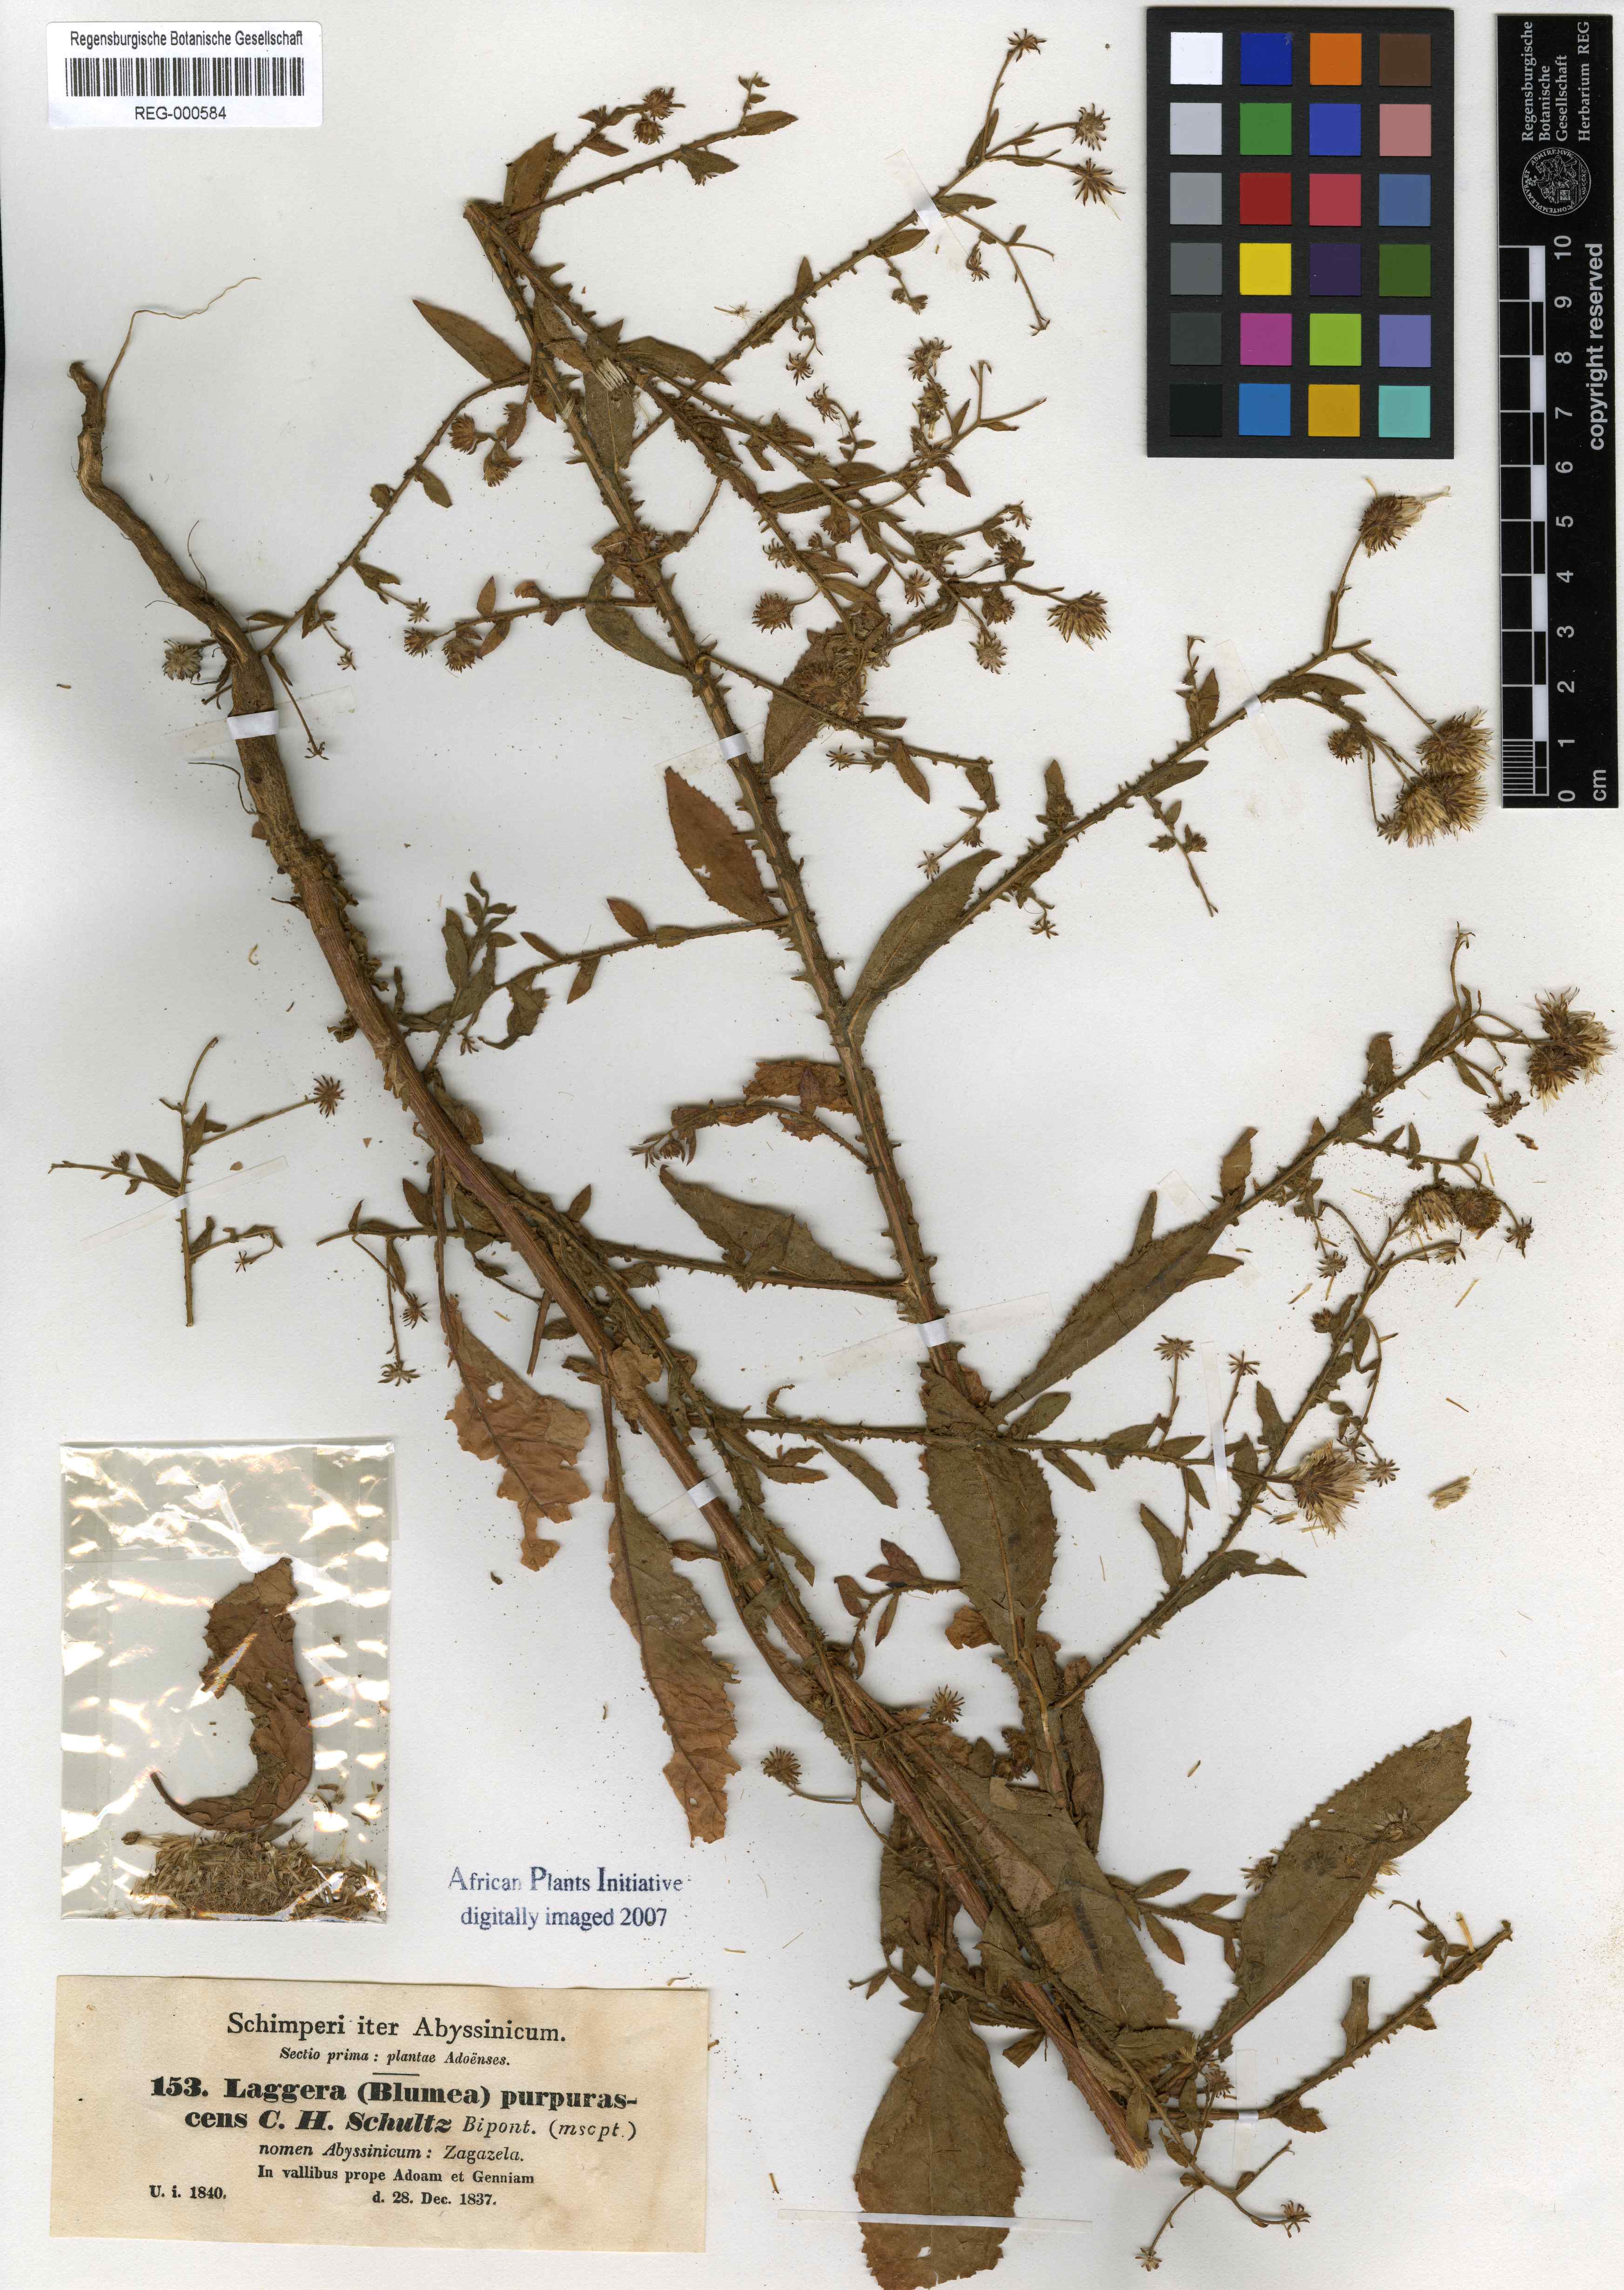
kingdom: Plantae
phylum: Tracheophyta
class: Magnoliopsida
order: Asterales
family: Asteraceae
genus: Laggera
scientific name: Laggera crispata
